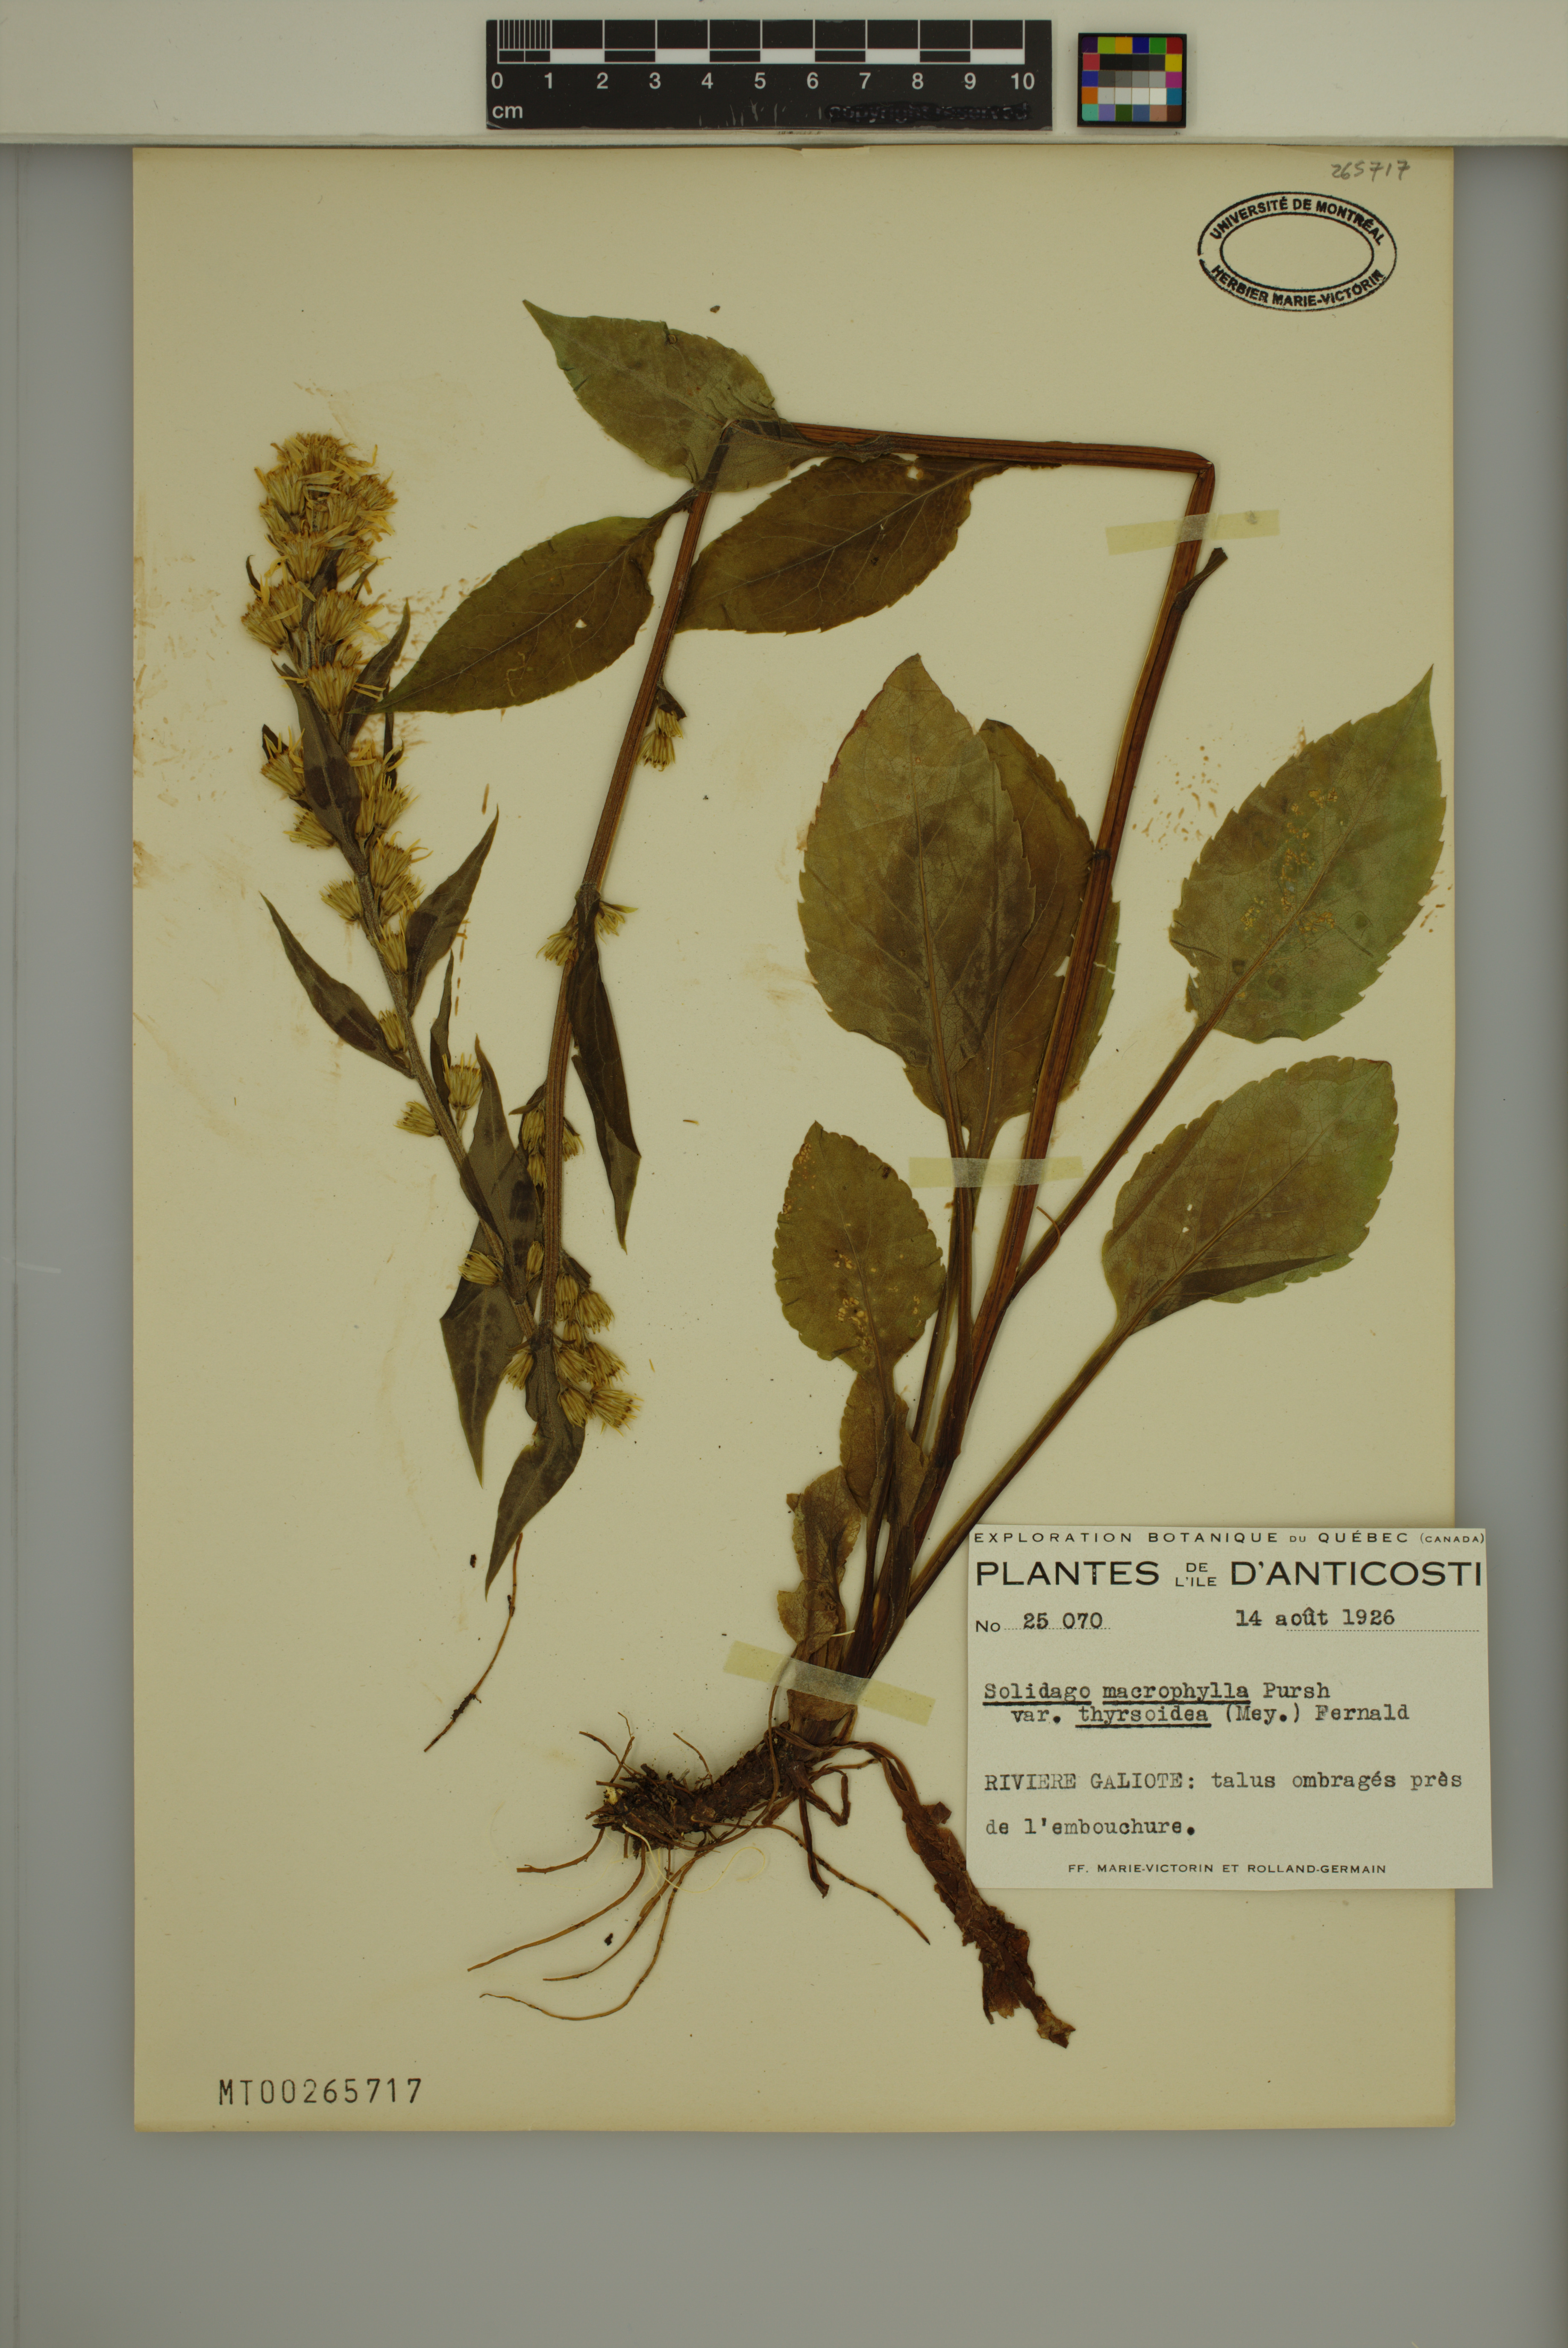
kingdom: Plantae
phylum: Tracheophyta
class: Magnoliopsida
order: Asterales
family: Asteraceae
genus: Solidago
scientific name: Solidago macrophylla
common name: Large-leaved goldenrod
